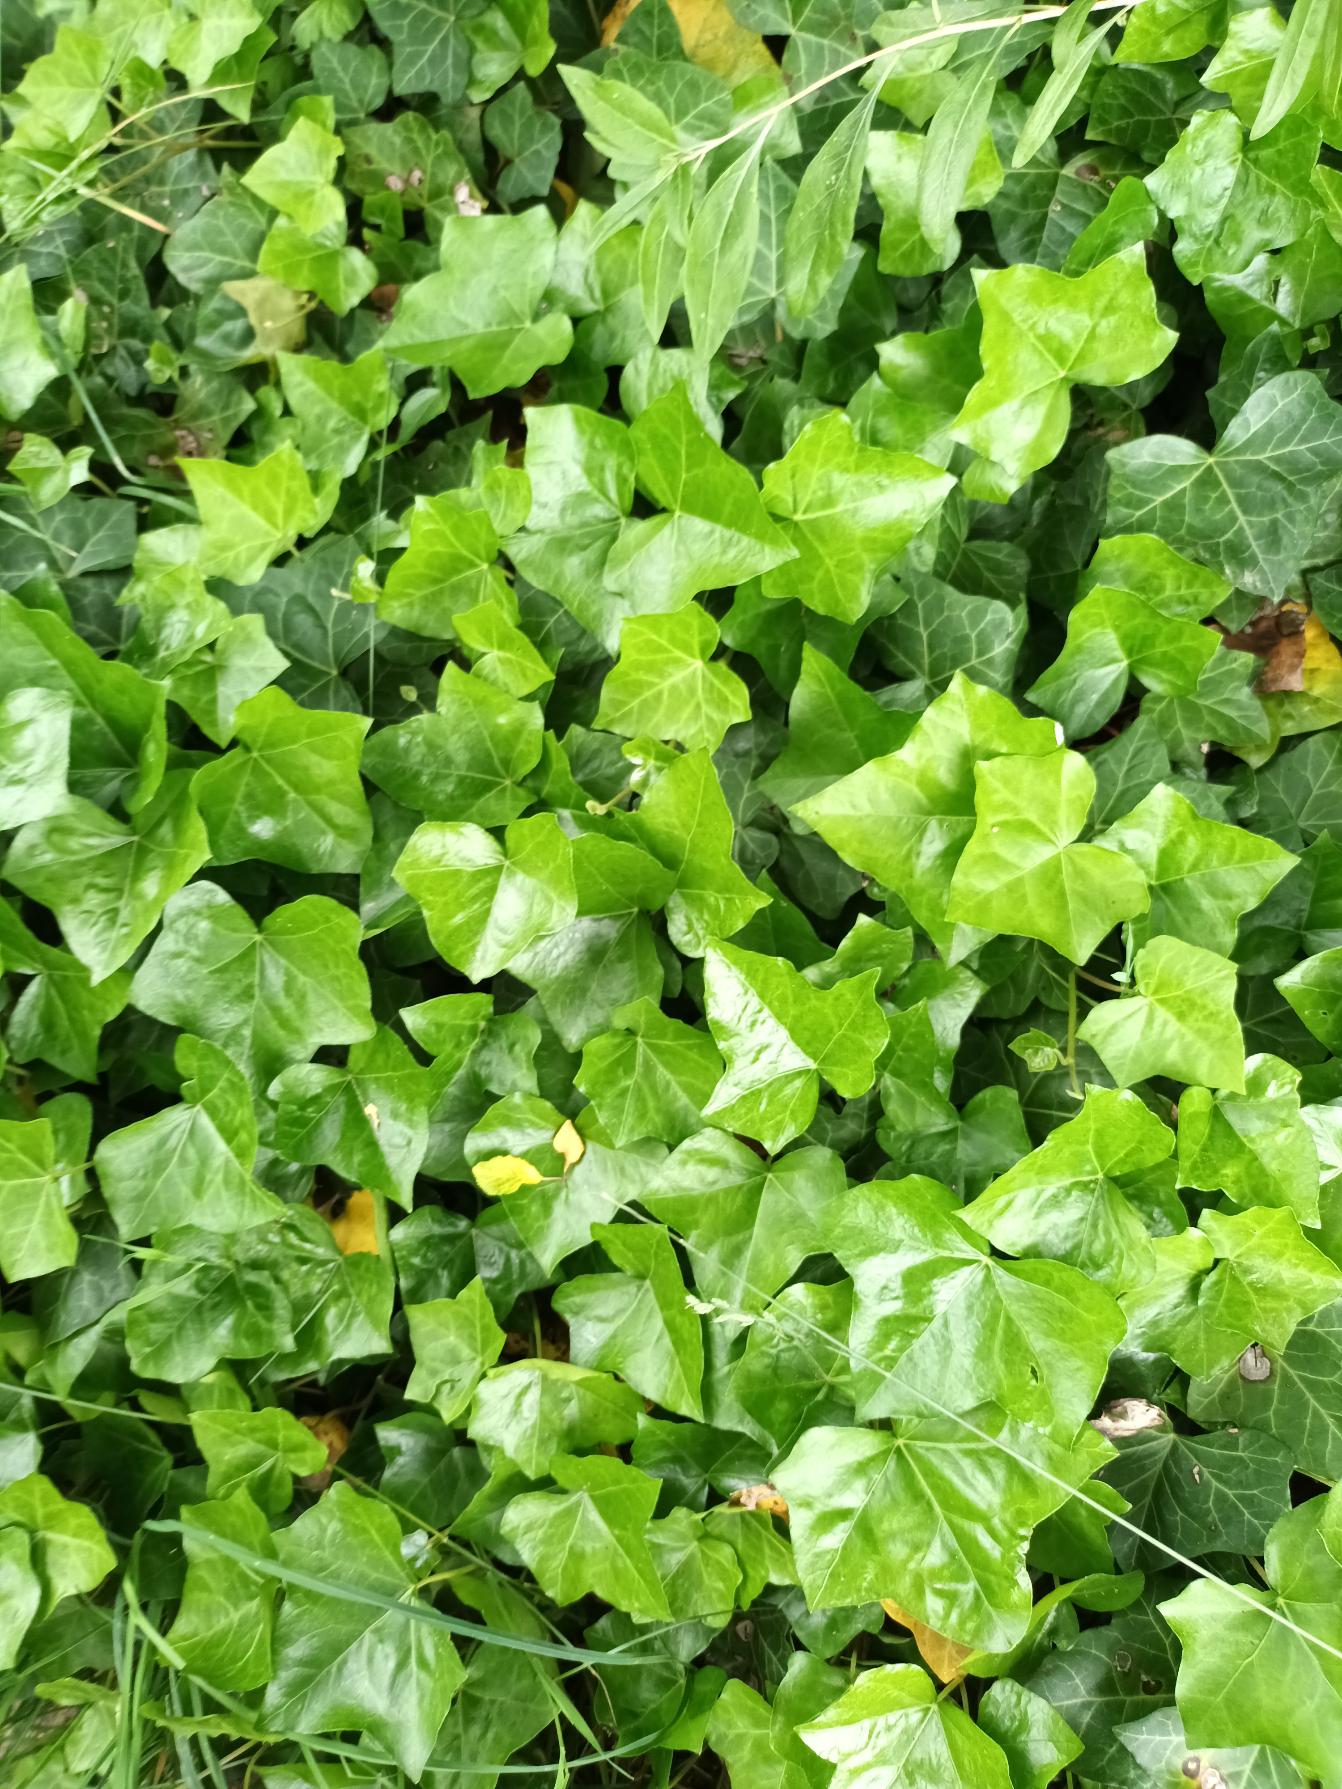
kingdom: Plantae
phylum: Tracheophyta
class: Magnoliopsida
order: Apiales
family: Araliaceae
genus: Hedera
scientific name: Hedera hibernica
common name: Irsk vedbend
